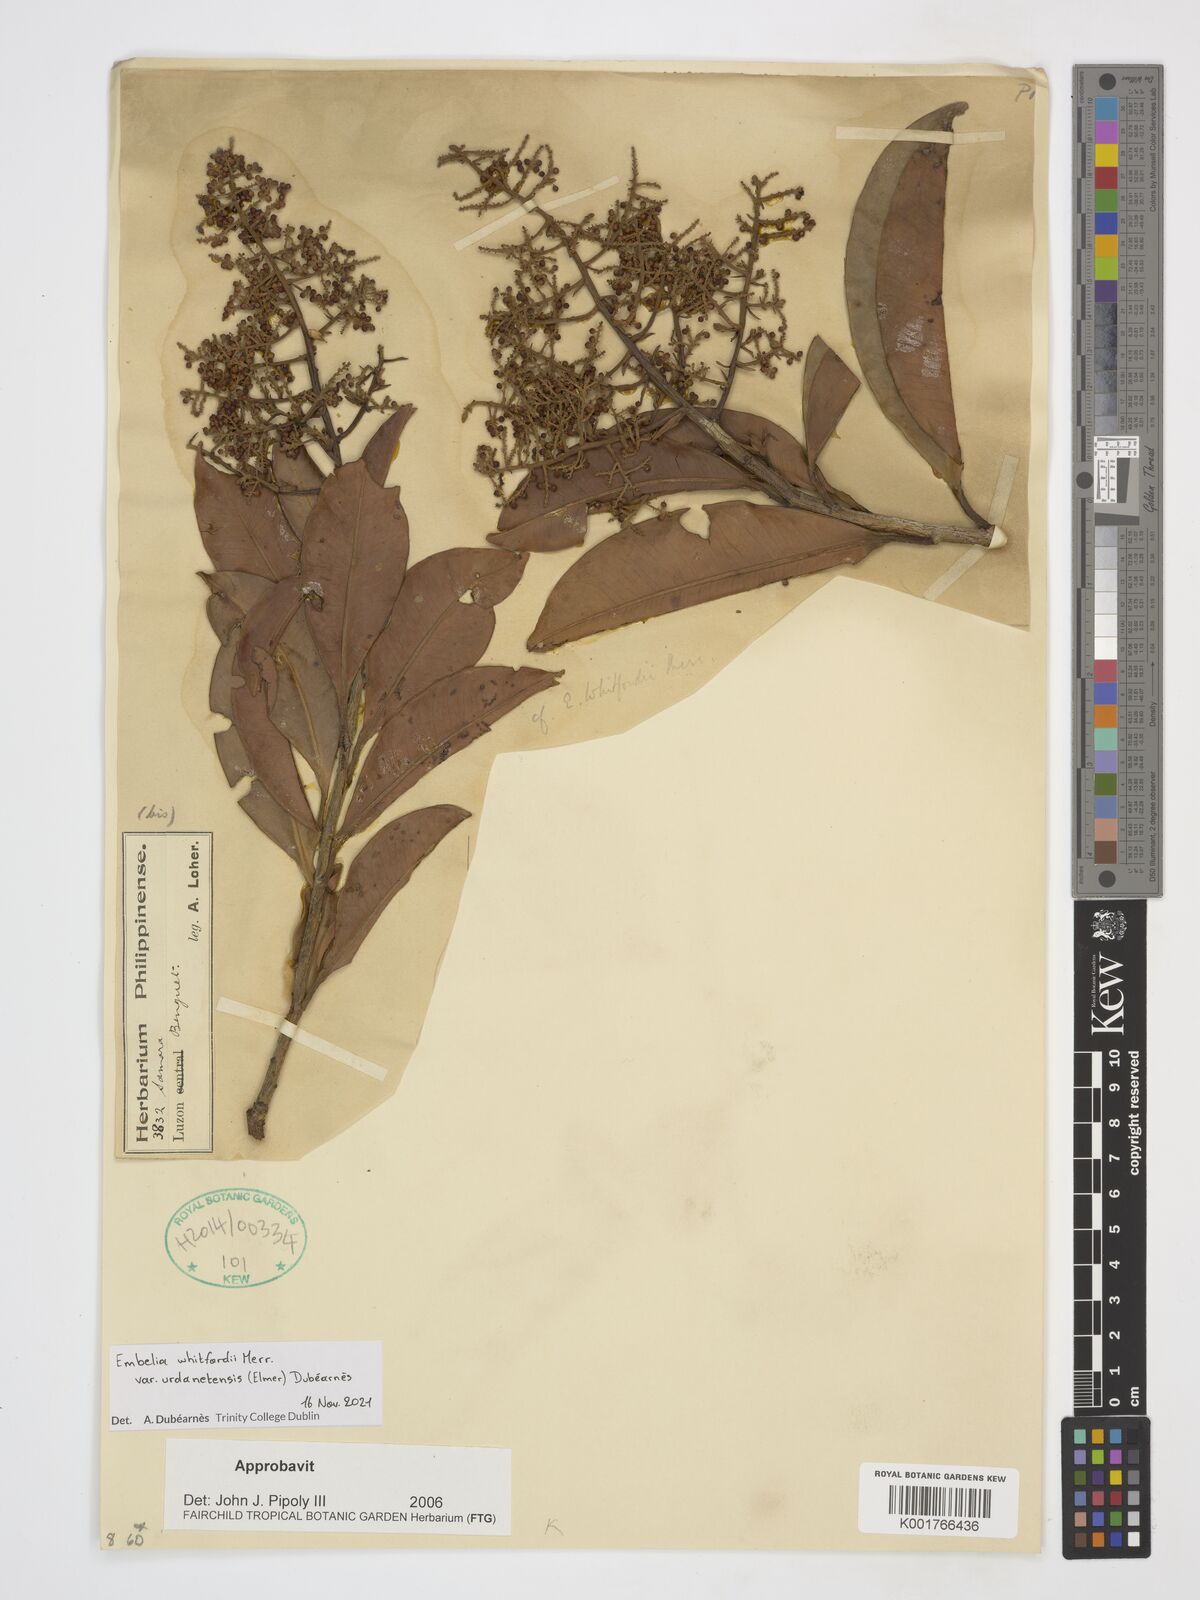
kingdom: Plantae
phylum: Tracheophyta
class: Magnoliopsida
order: Ericales
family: Primulaceae
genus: Embelia
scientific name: Embelia whitfordii
